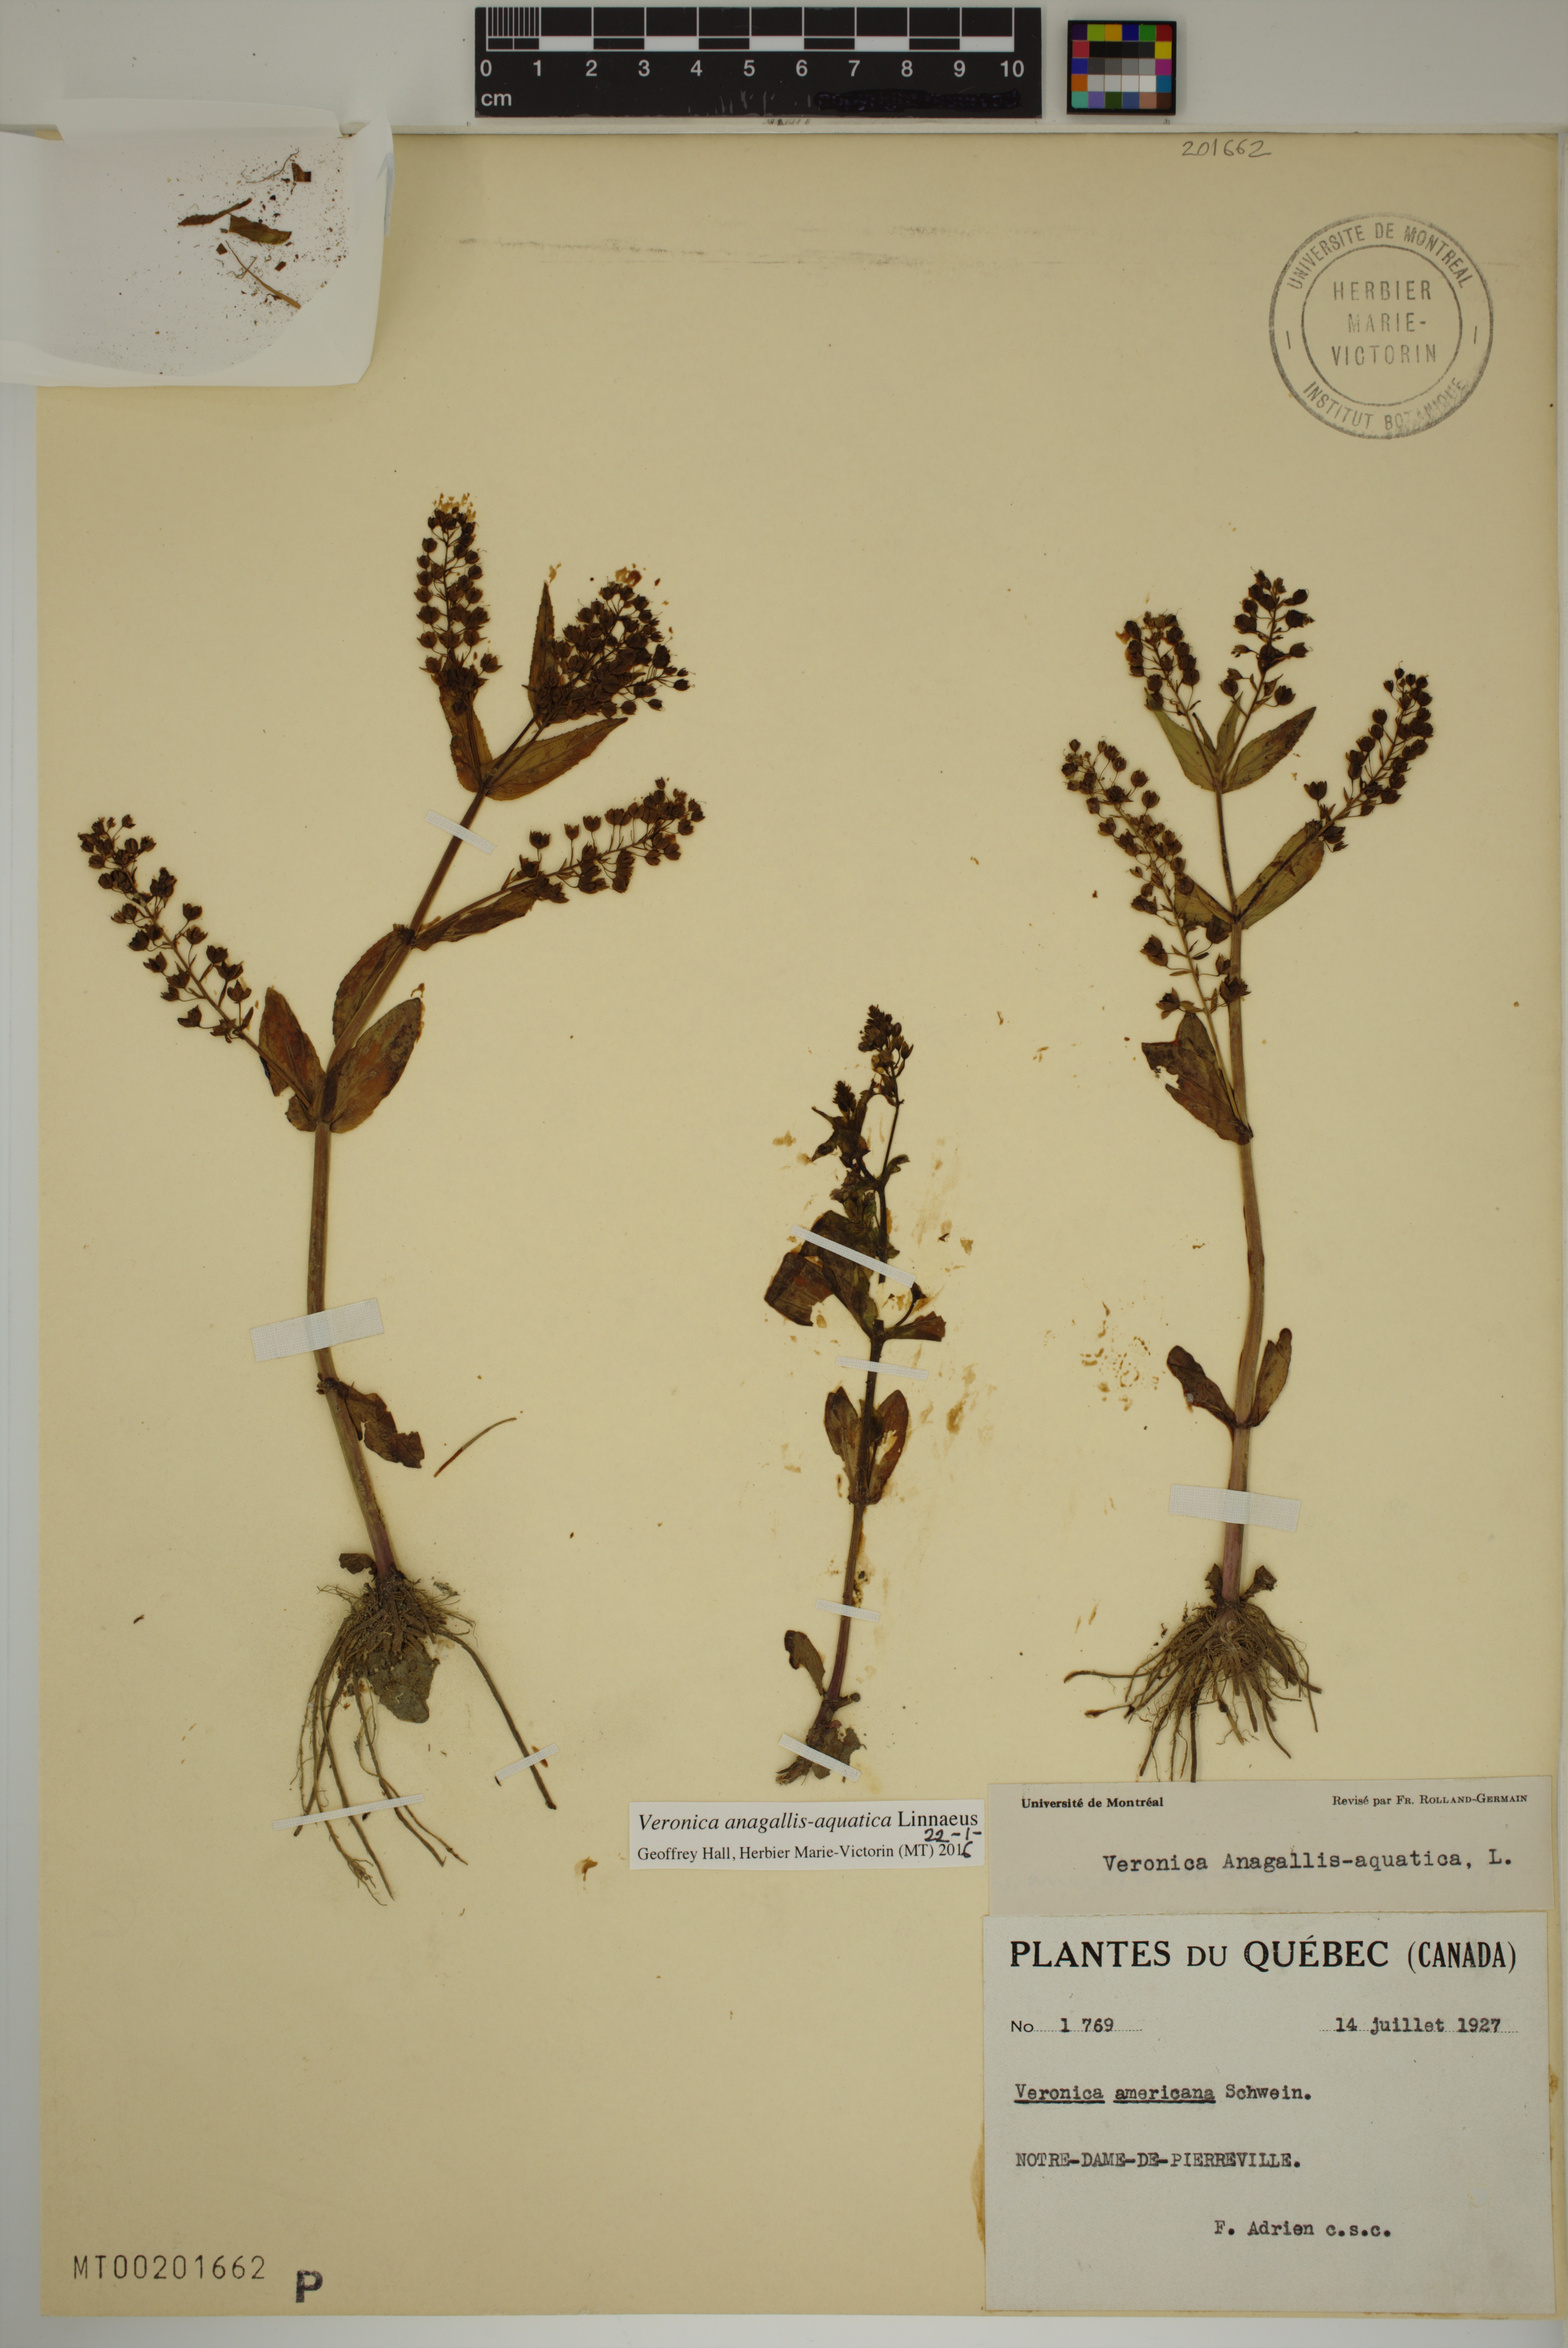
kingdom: Plantae
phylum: Tracheophyta
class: Magnoliopsida
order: Lamiales
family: Plantaginaceae
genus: Veronica
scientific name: Veronica anagallis-aquatica
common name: Water speedwell
